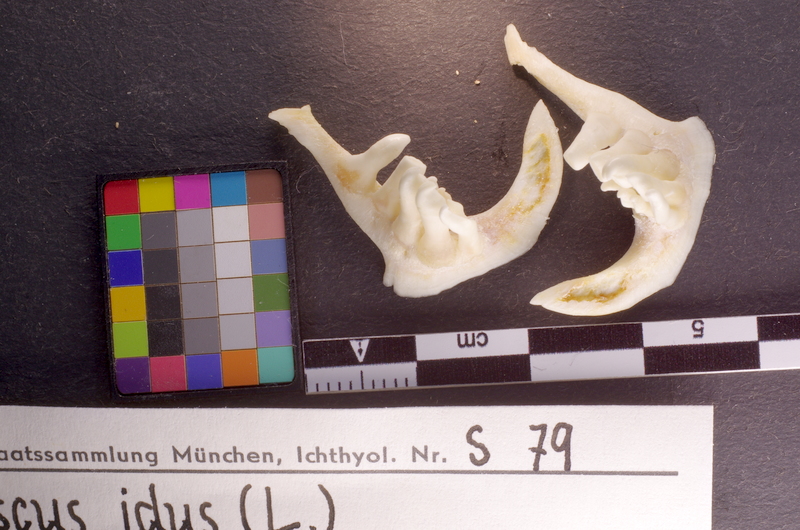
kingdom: Animalia
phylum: Chordata
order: Cypriniformes
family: Cyprinidae
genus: Leuciscus
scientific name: Leuciscus idus
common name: Ide
